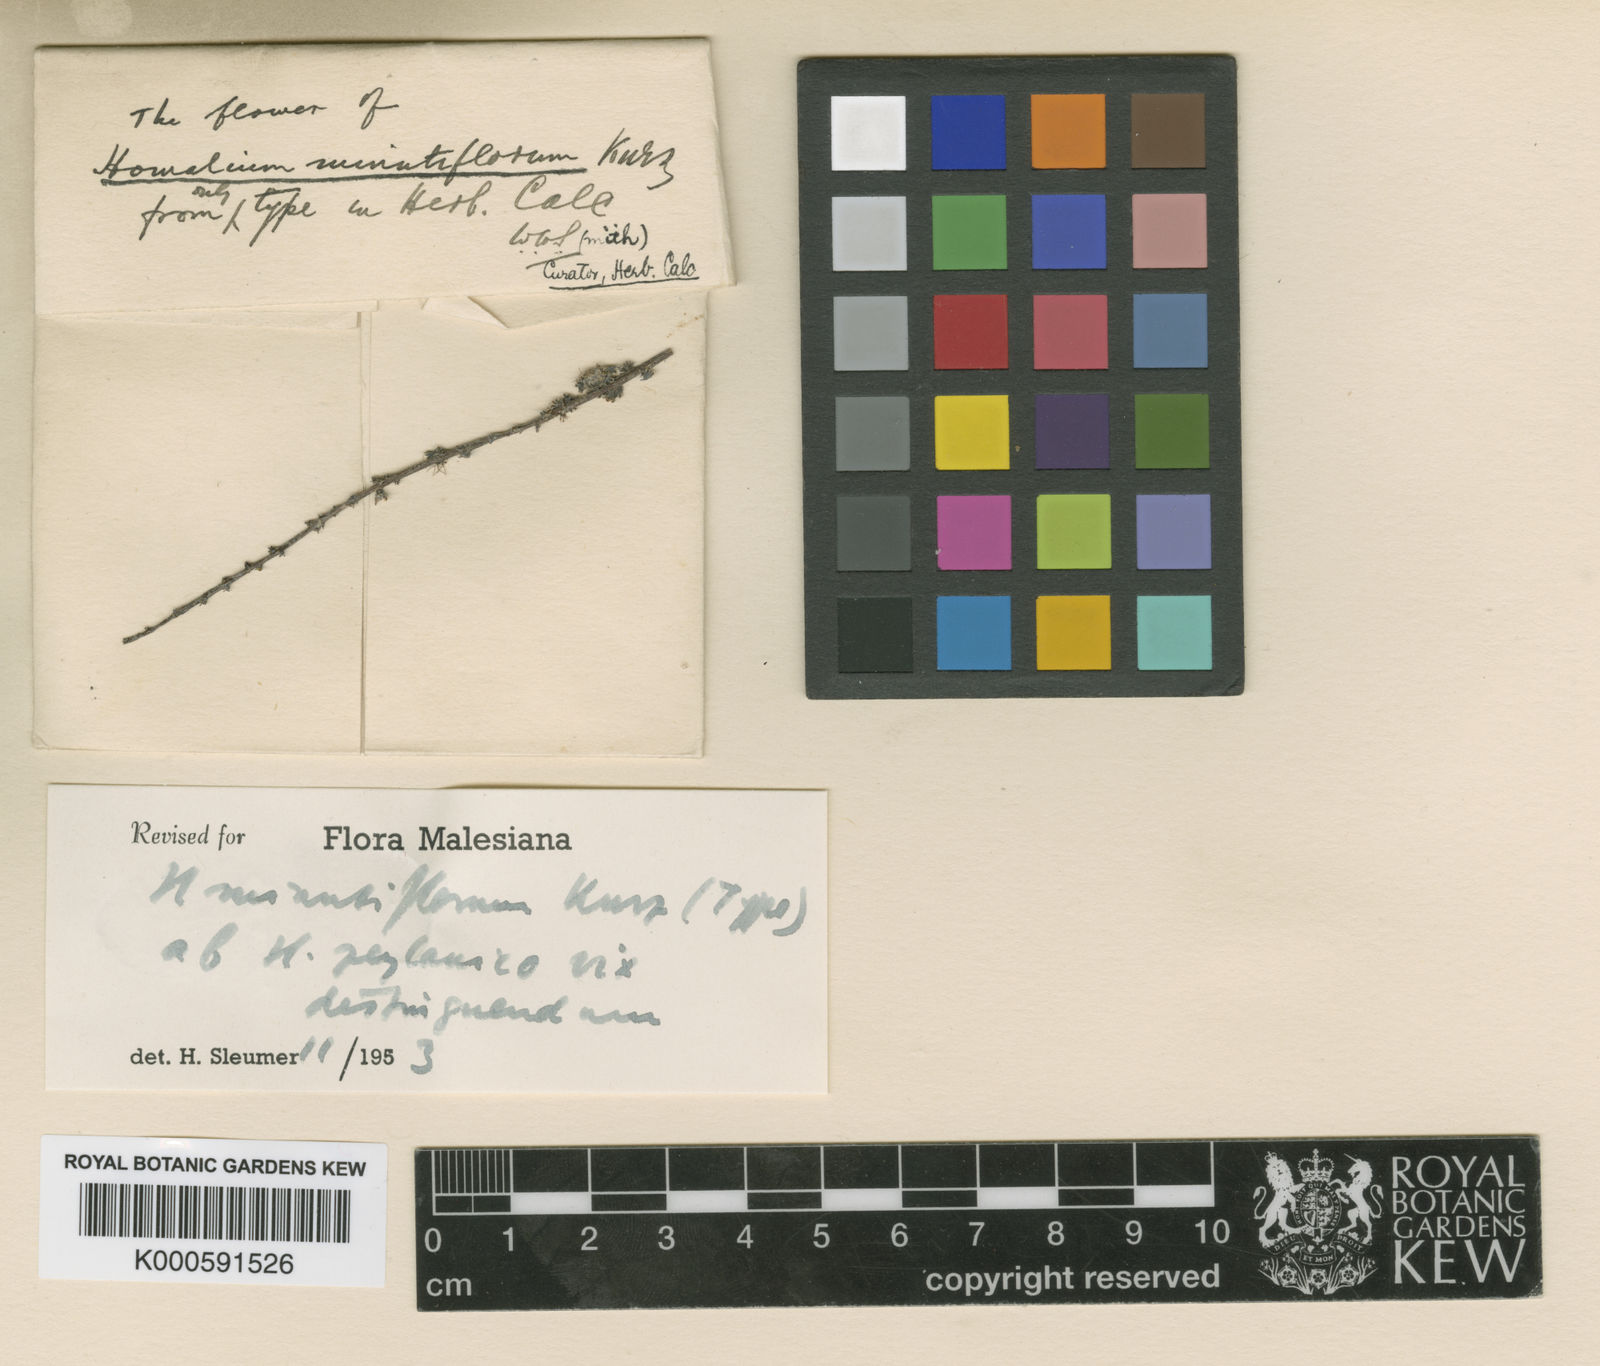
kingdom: Plantae
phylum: Tracheophyta
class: Magnoliopsida
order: Malpighiales
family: Salicaceae
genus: Homalium
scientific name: Homalium ceylanicum
